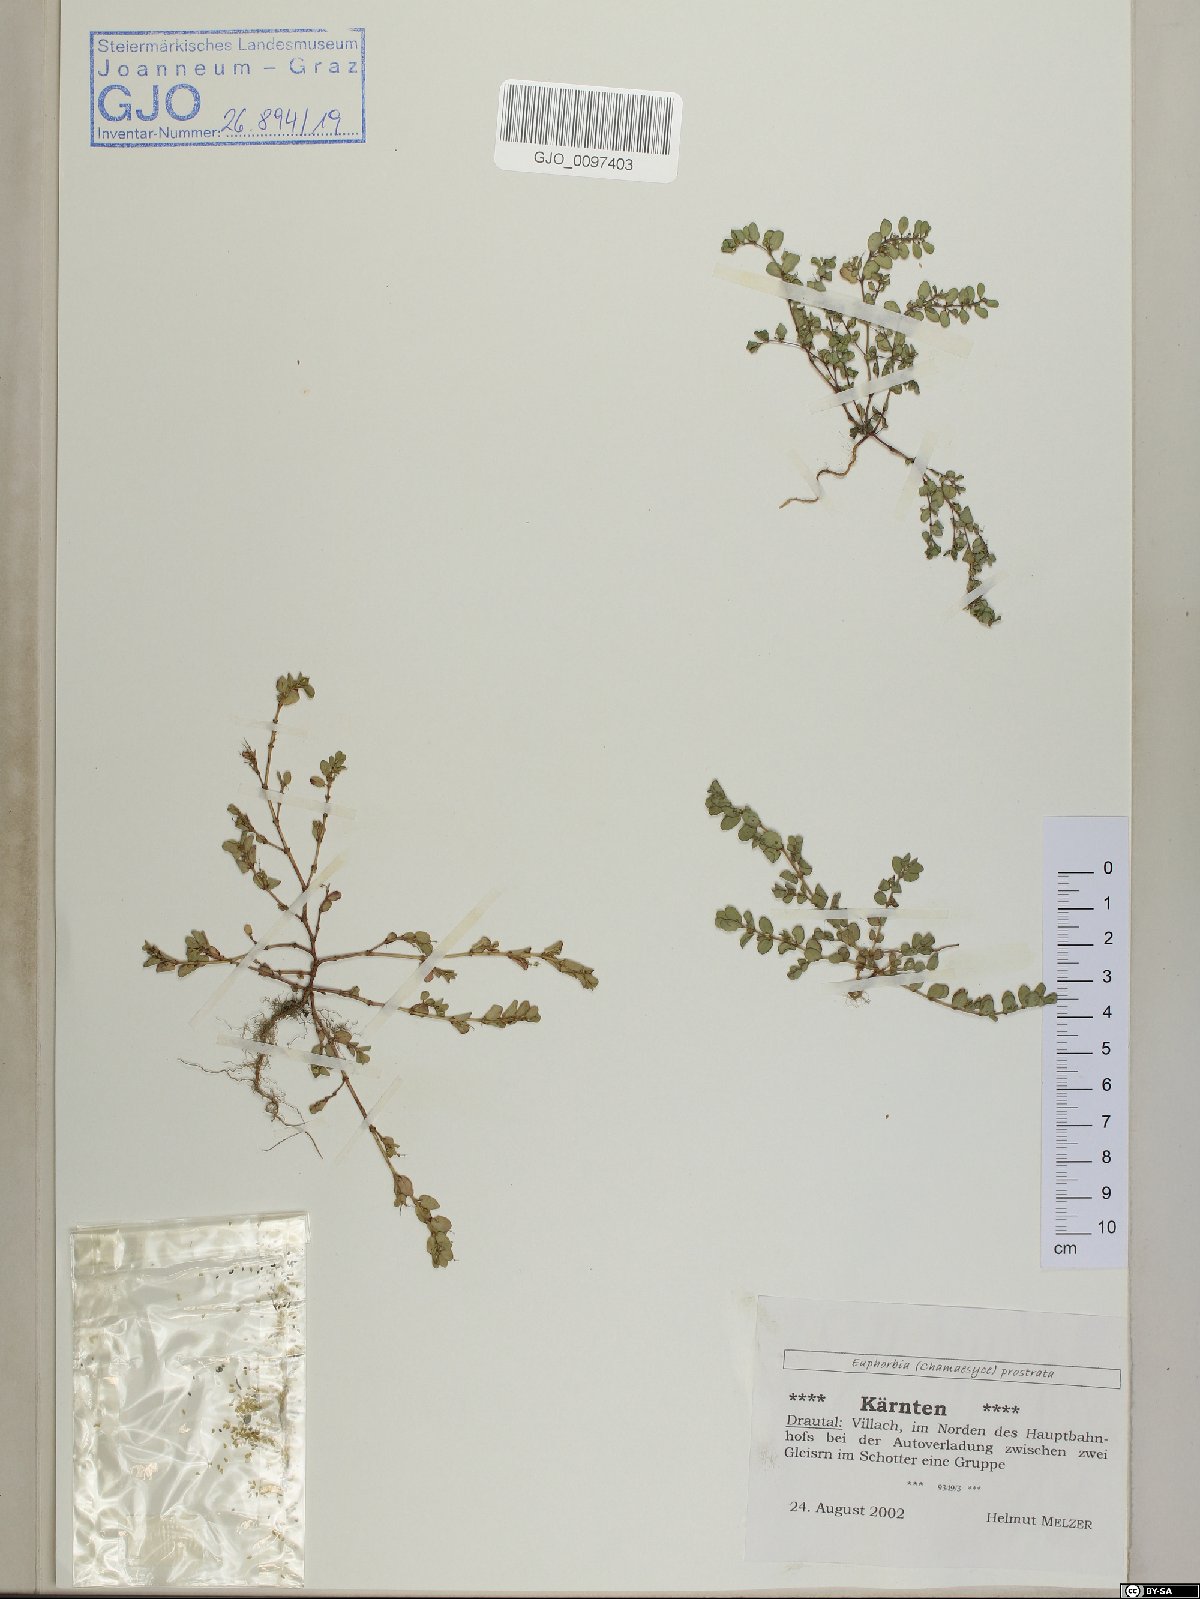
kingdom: Plantae
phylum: Tracheophyta
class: Magnoliopsida
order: Malpighiales
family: Euphorbiaceae
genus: Euphorbia
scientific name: Euphorbia prostrata
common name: Prostrate sandmat
